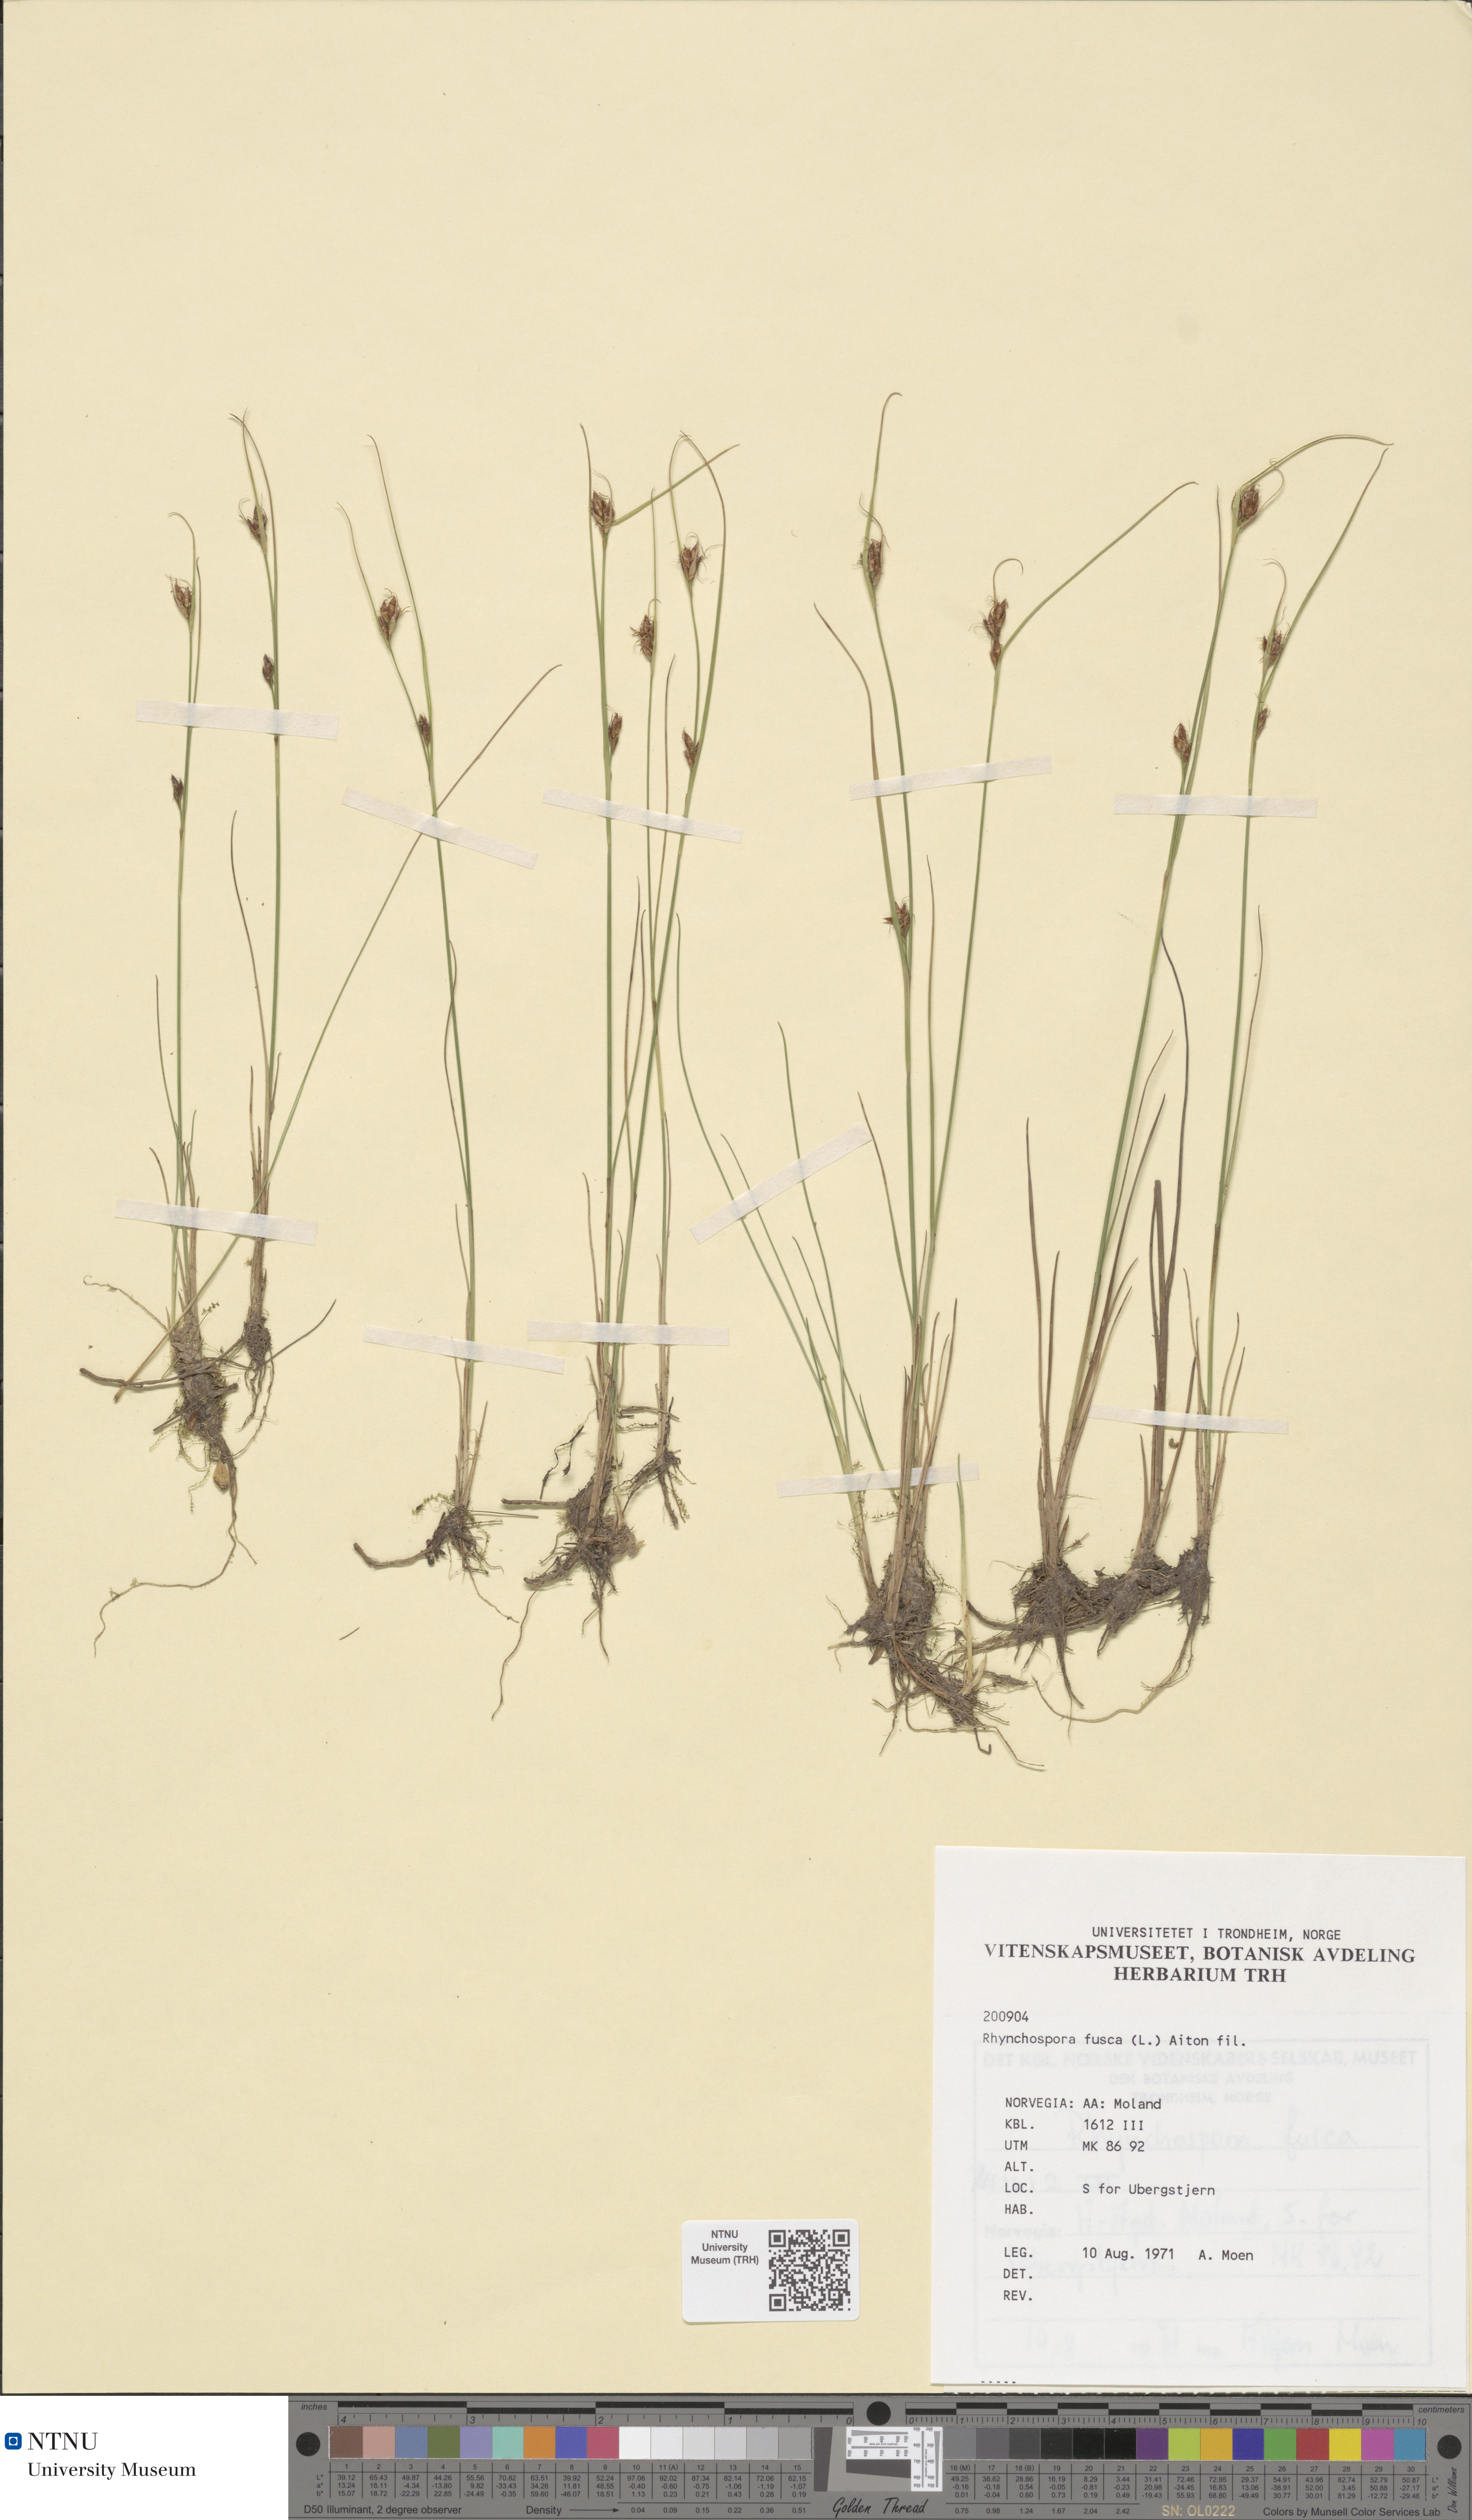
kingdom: Plantae
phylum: Tracheophyta
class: Liliopsida
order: Poales
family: Cyperaceae
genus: Rhynchospora
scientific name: Rhynchospora fusca
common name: Brown beak-sedge
